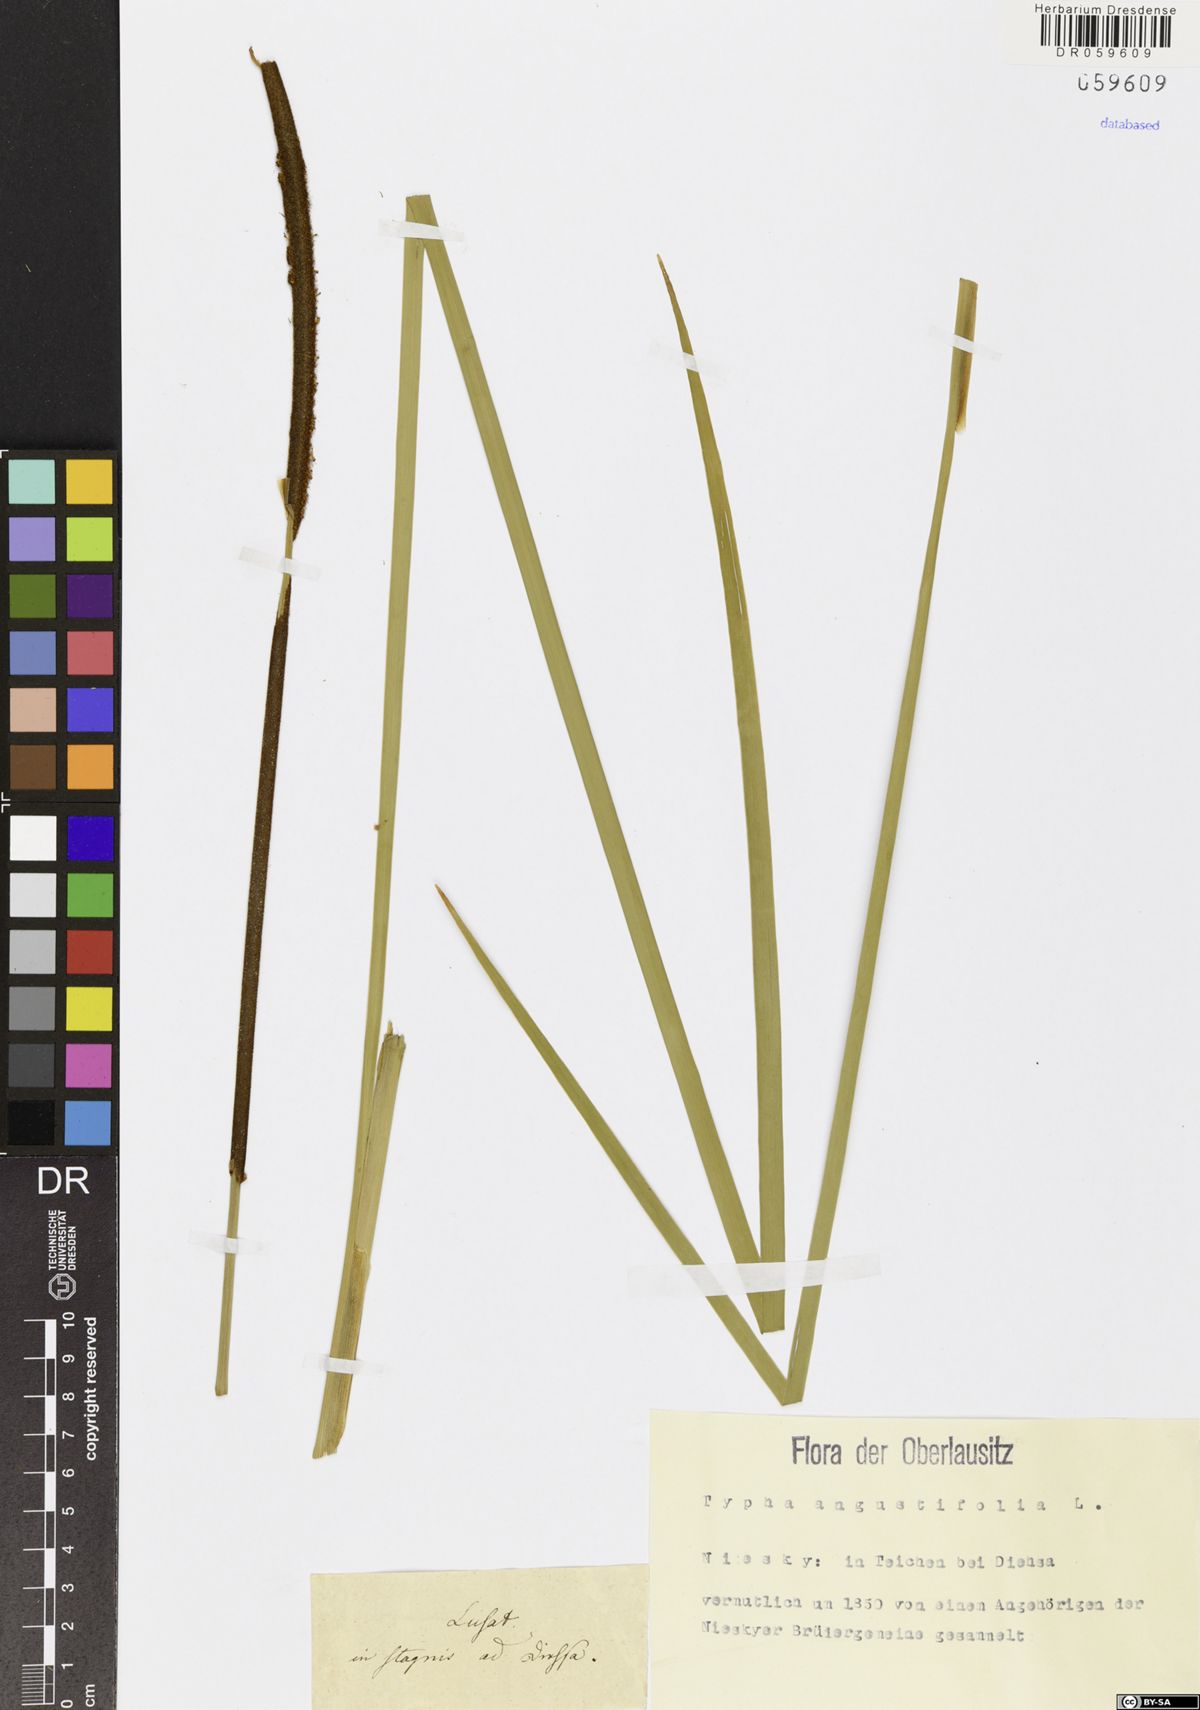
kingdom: Plantae
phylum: Tracheophyta
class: Liliopsida
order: Poales
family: Typhaceae
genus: Typha
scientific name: Typha angustifolia
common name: Lesser bulrush
